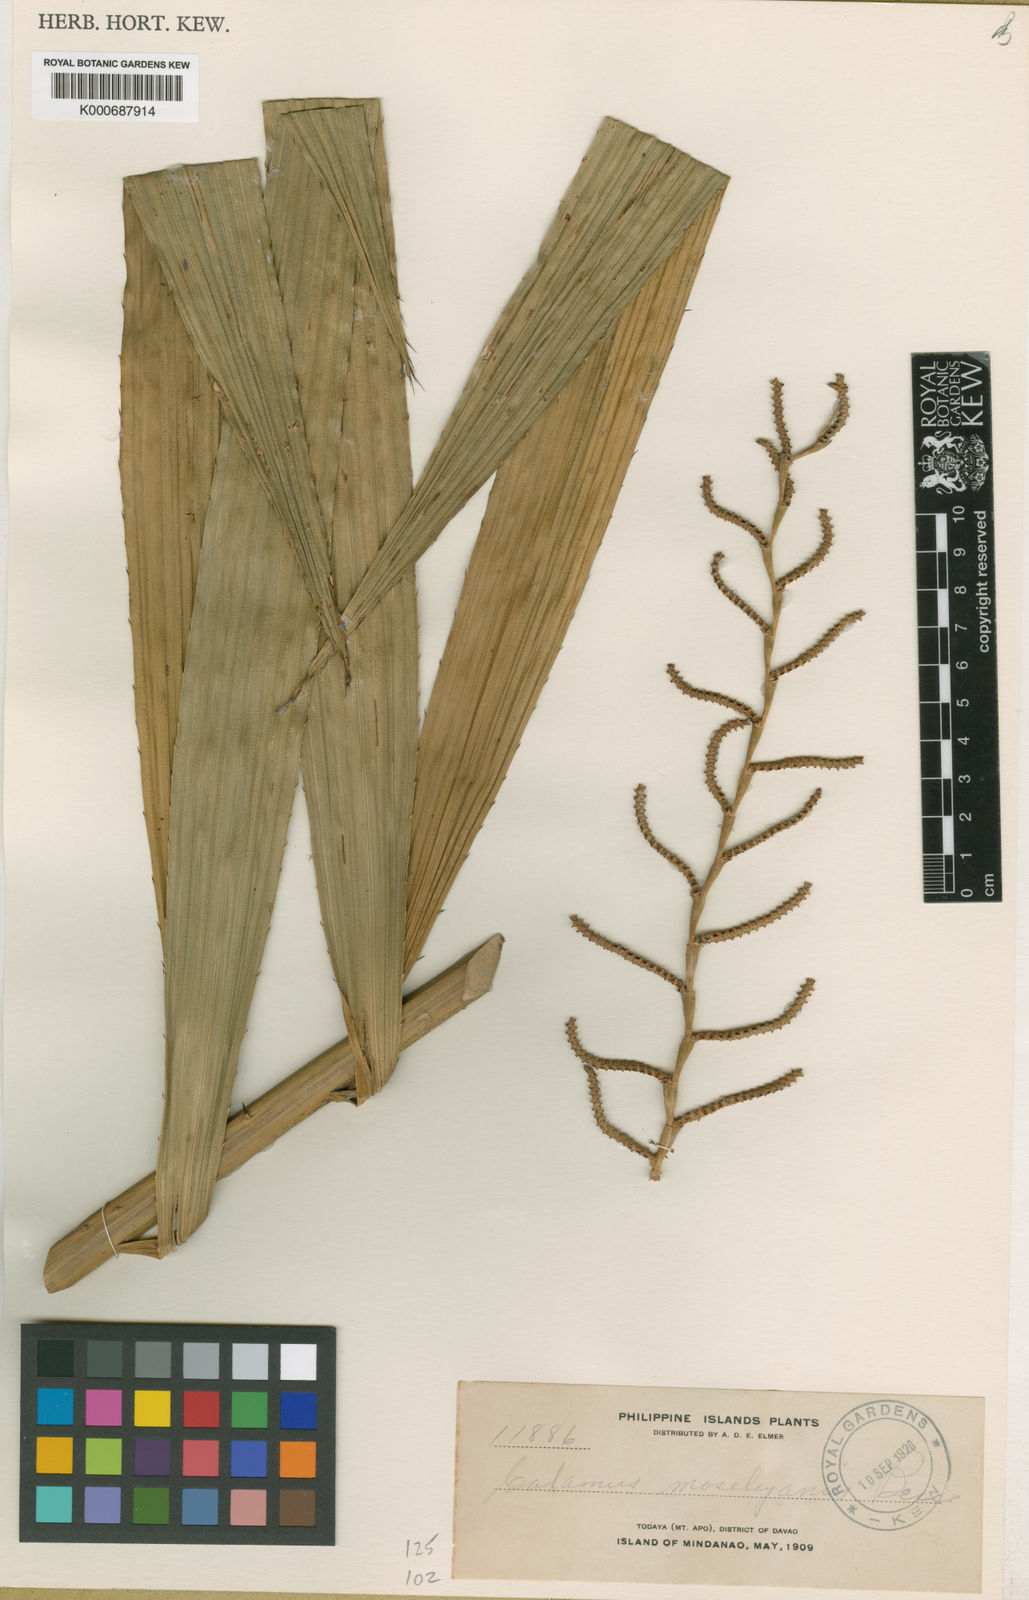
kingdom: Plantae
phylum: Tracheophyta
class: Liliopsida
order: Arecales
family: Arecaceae
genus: Calamus
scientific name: Calamus moseleyanus
